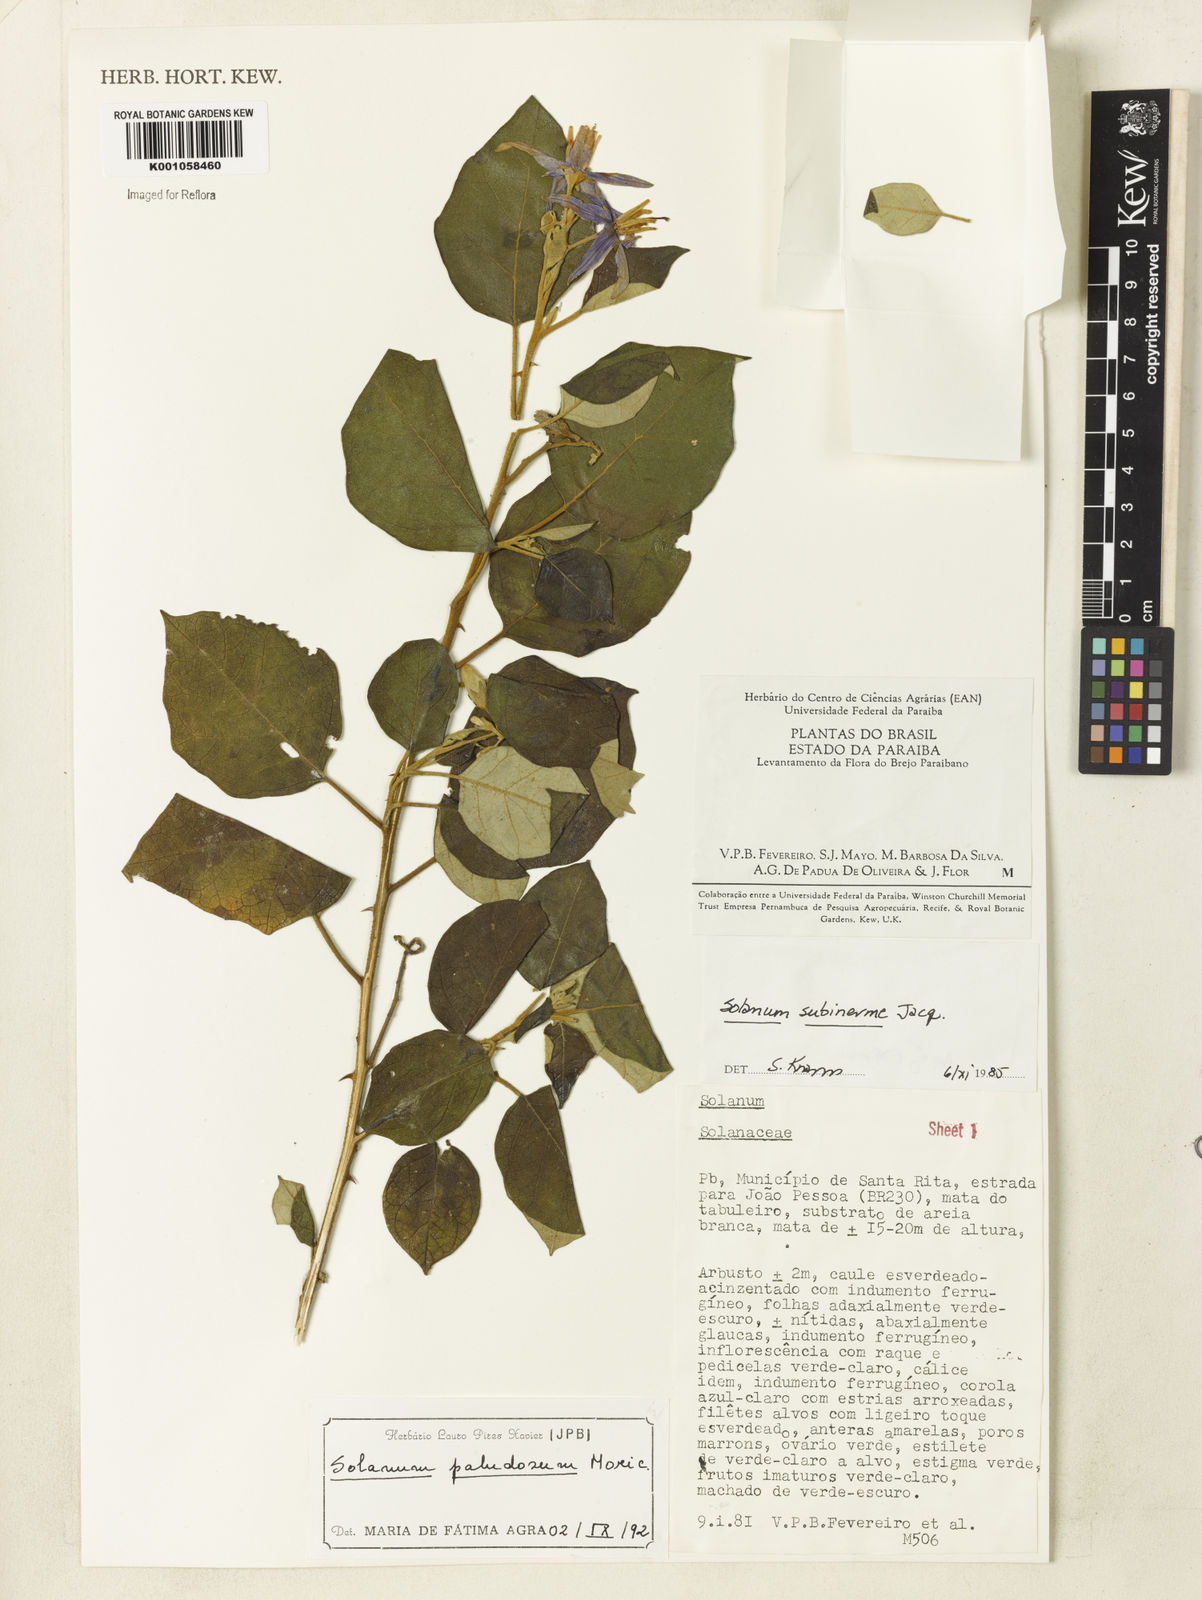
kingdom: Plantae
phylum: Tracheophyta
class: Magnoliopsida
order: Solanales
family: Solanaceae
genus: Solanum
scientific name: Solanum paludosum
